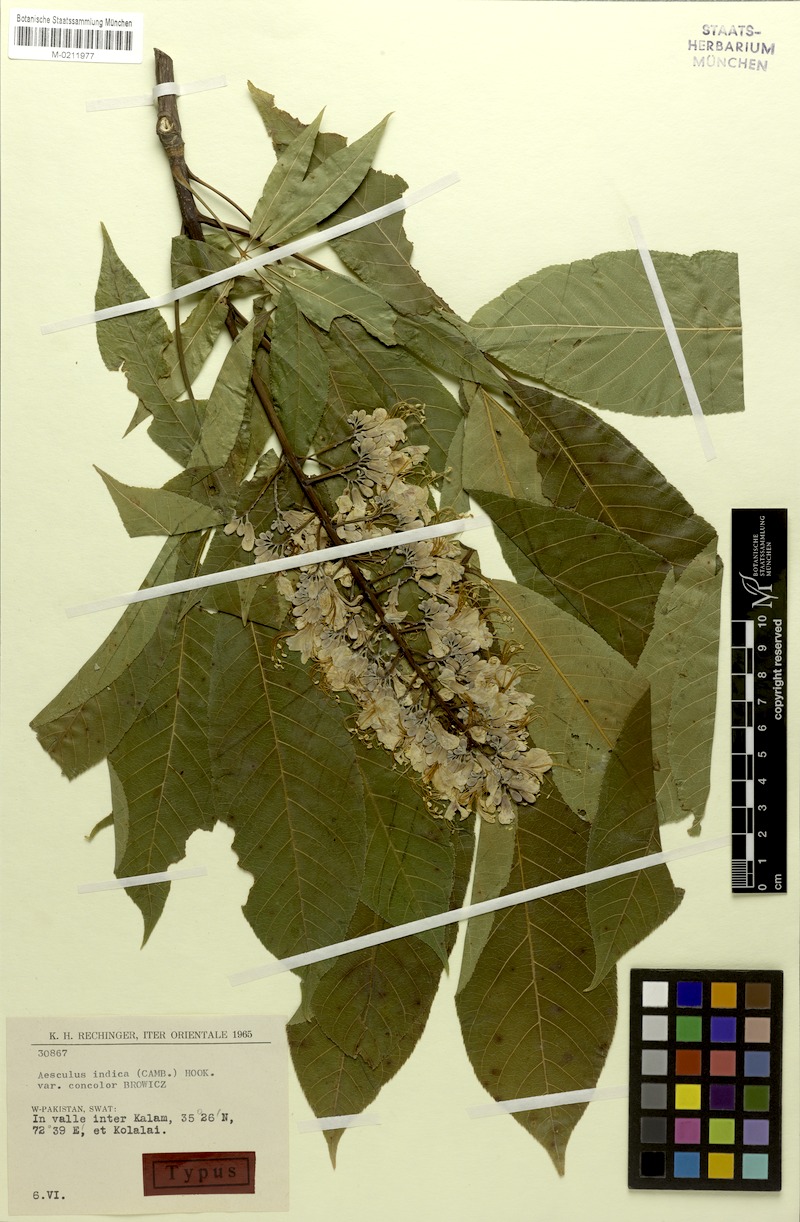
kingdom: Plantae
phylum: Tracheophyta
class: Magnoliopsida
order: Sapindales
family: Sapindaceae
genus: Aesculus
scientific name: Aesculus indica
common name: Indian horse-chestnut
